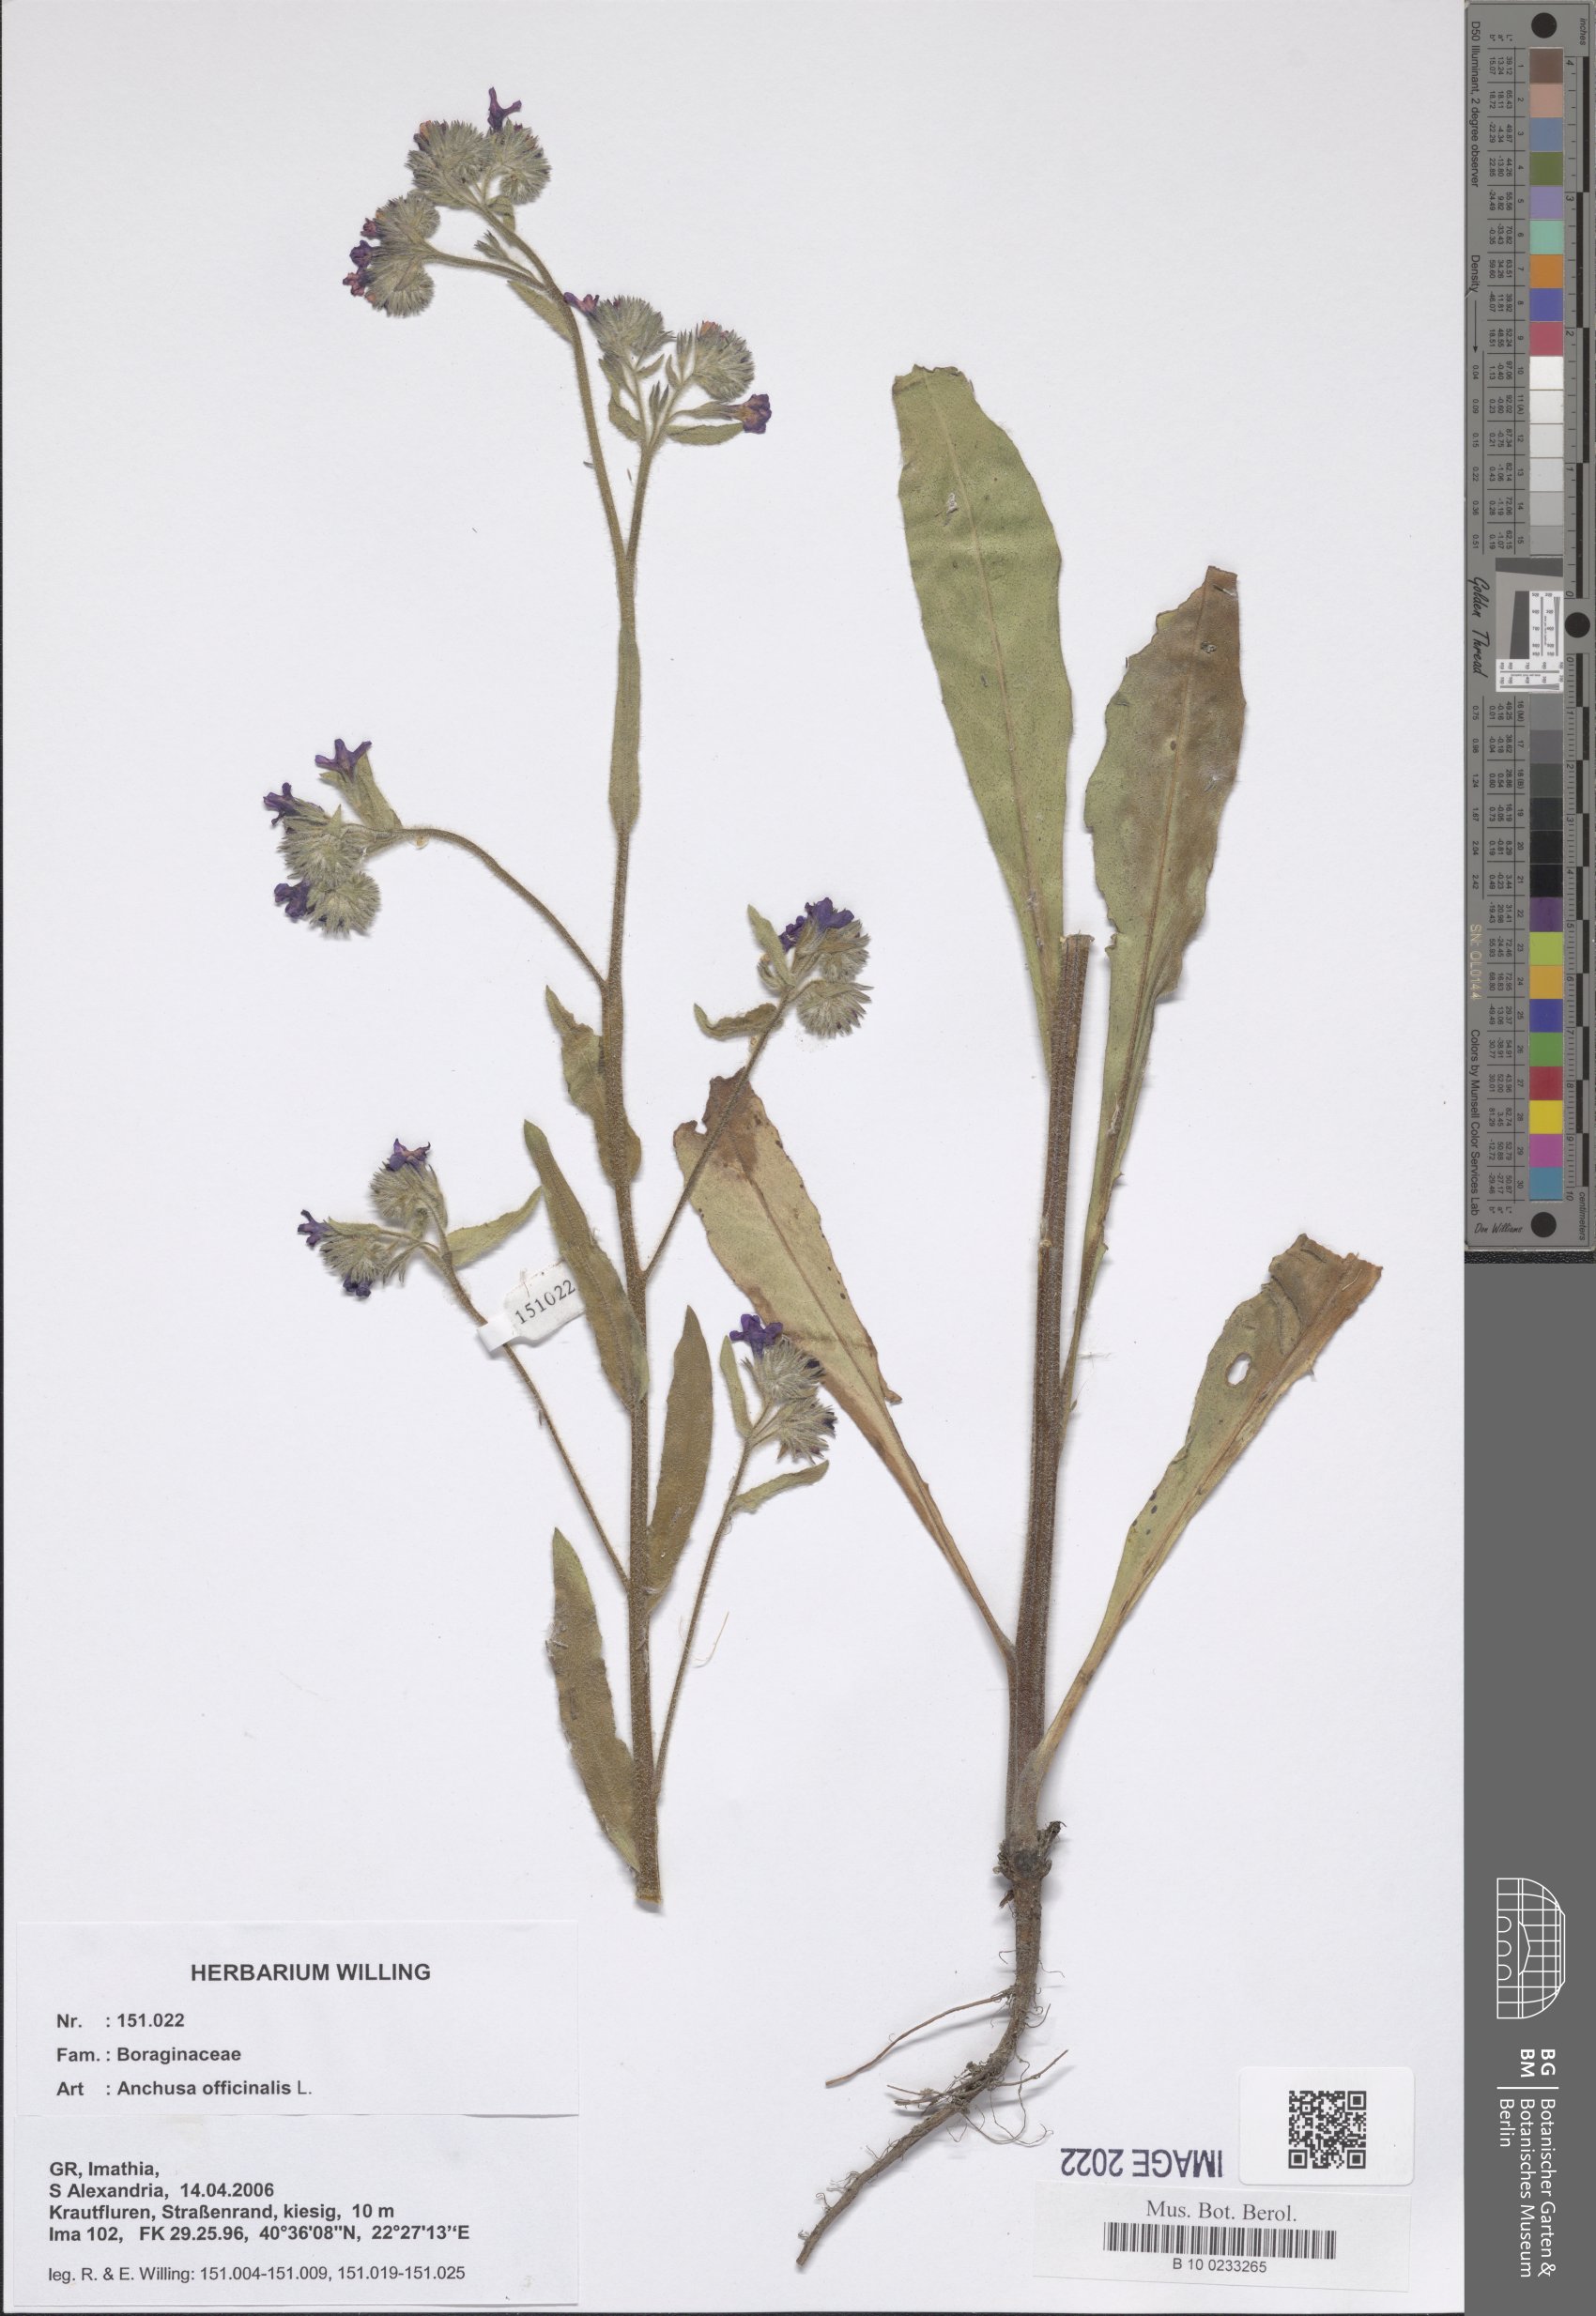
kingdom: Plantae
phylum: Tracheophyta
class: Magnoliopsida
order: Boraginales
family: Boraginaceae
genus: Anchusa
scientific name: Anchusa officinalis
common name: Alkanet
